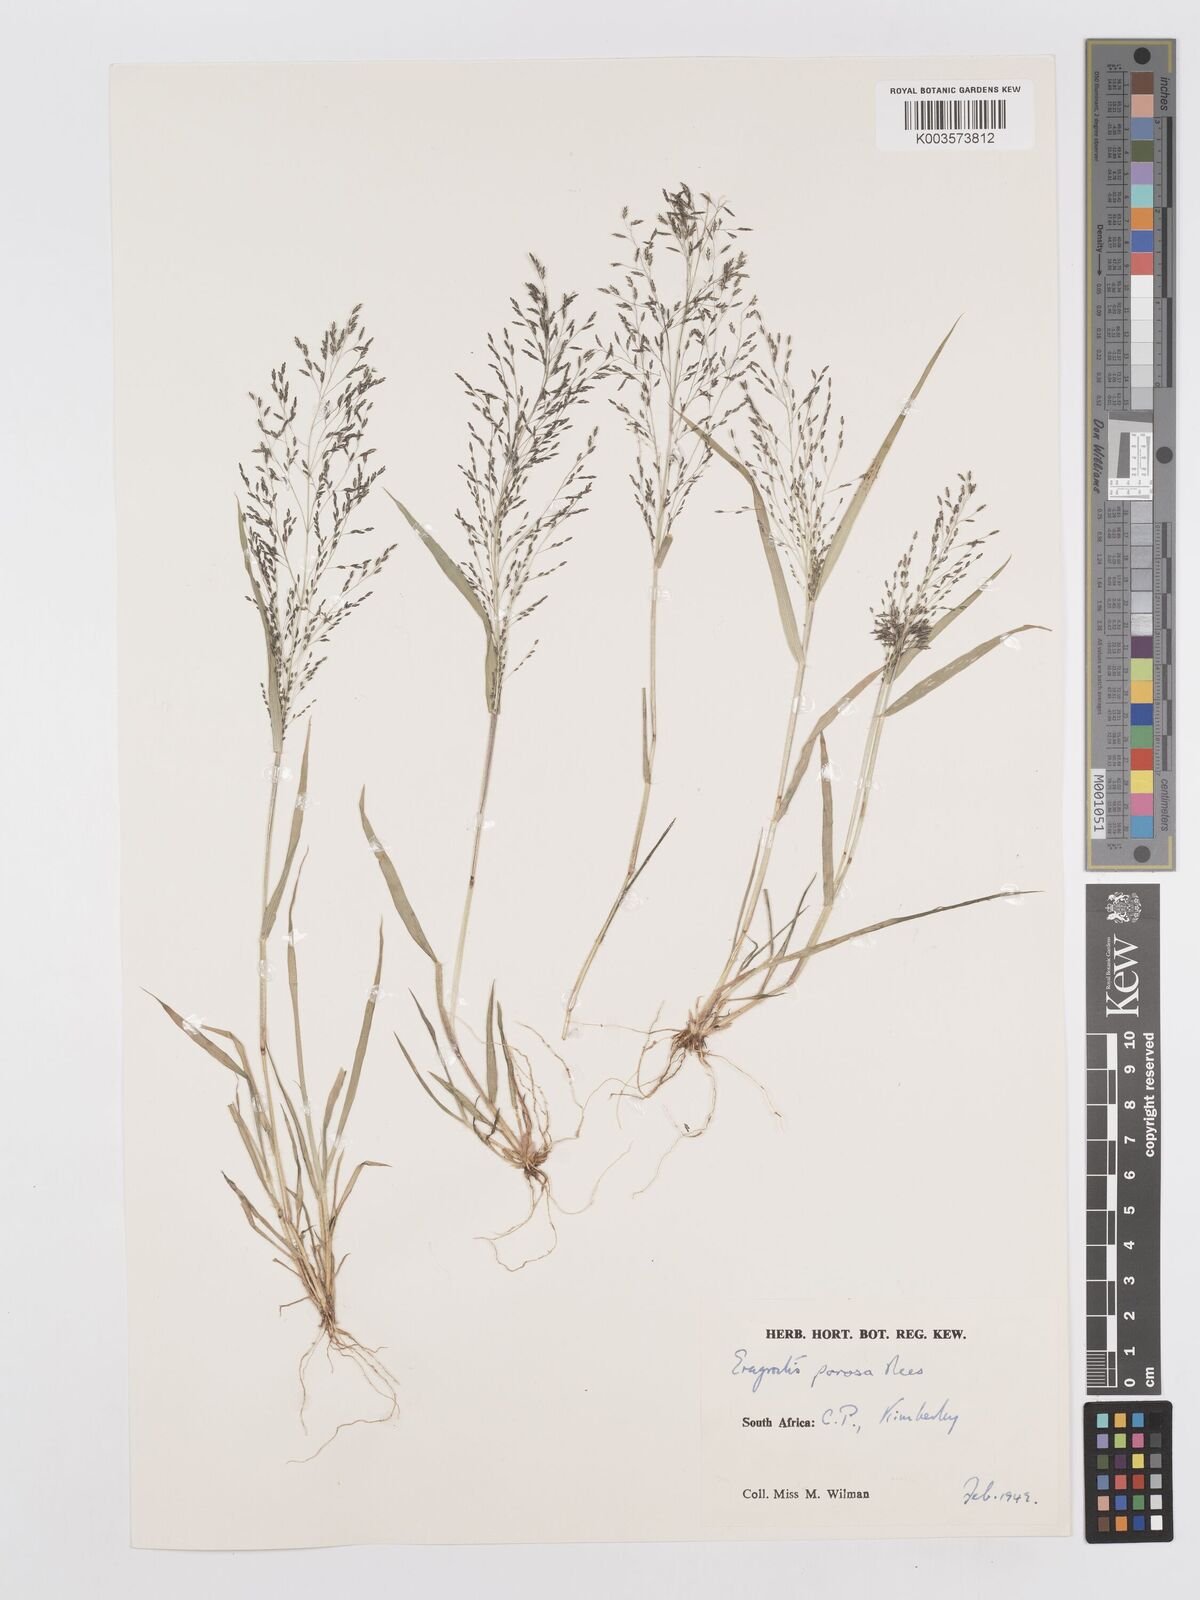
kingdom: Plantae
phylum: Tracheophyta
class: Liliopsida
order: Poales
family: Poaceae
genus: Eragrostis
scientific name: Eragrostis porosa
